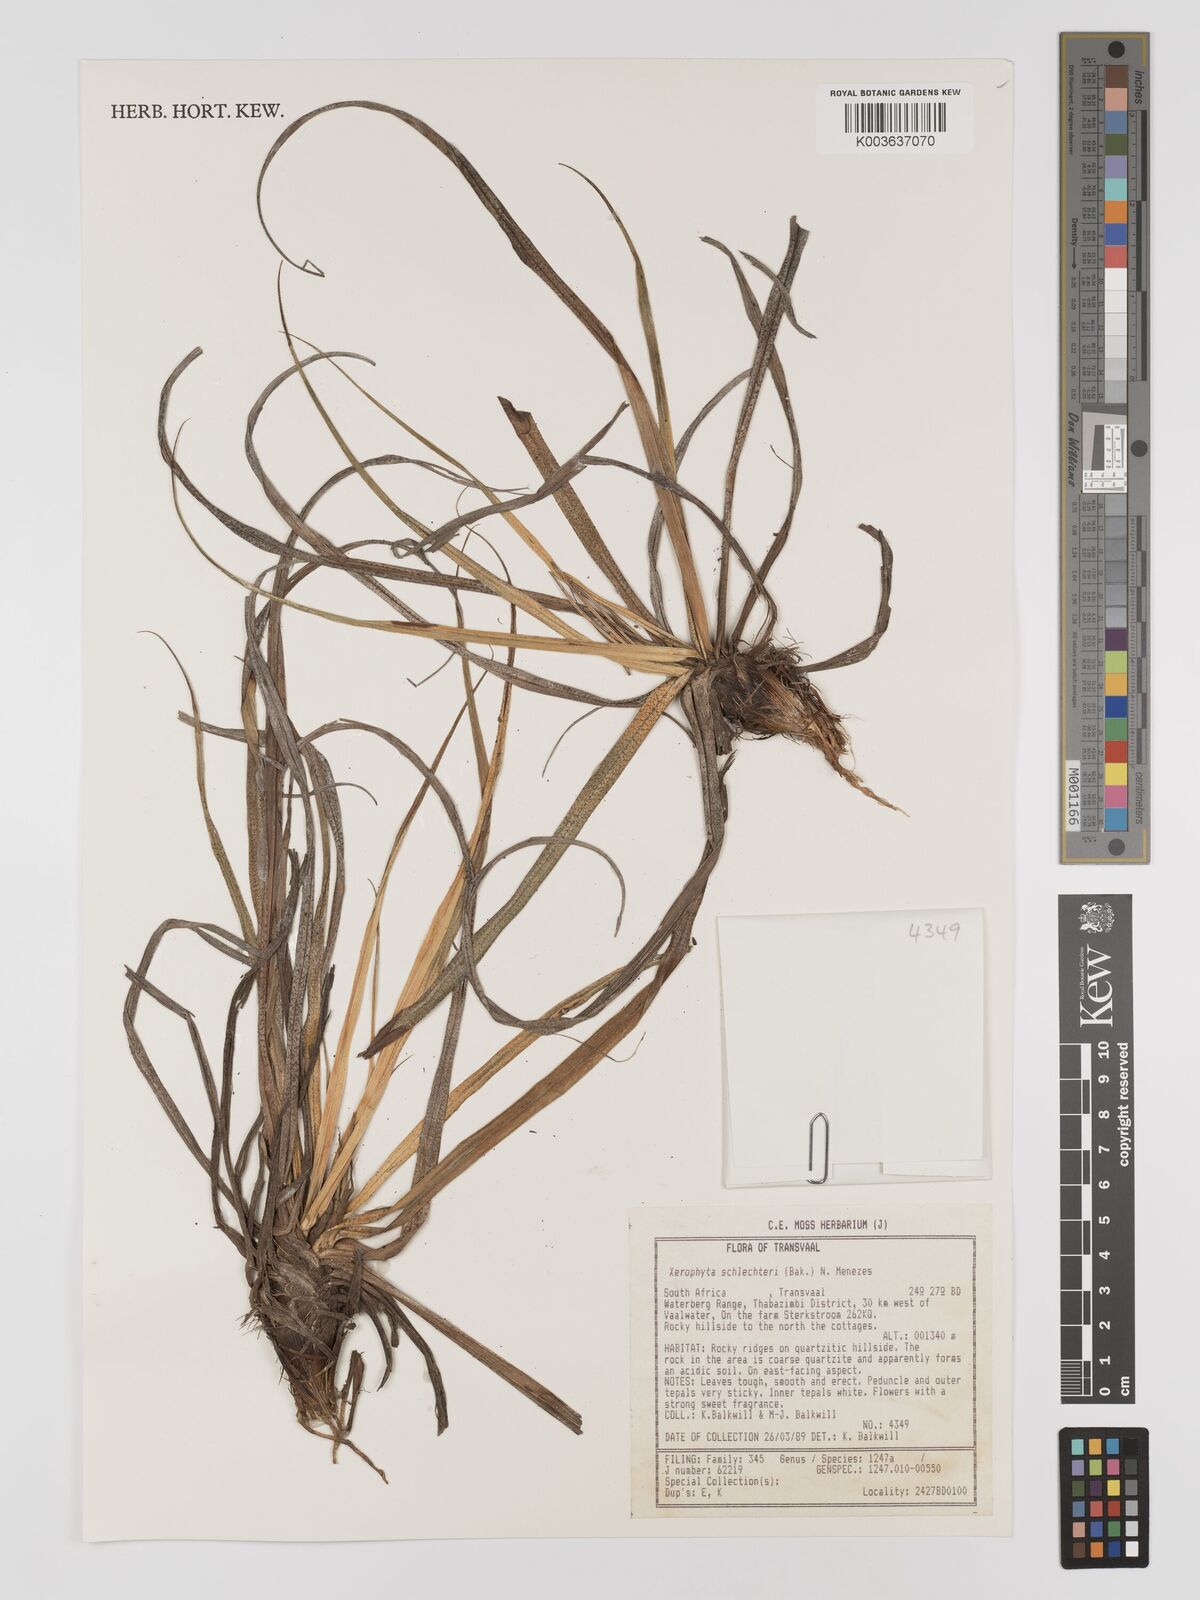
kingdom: Plantae
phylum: Tracheophyta
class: Liliopsida
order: Pandanales
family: Velloziaceae
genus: Xerophyta
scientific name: Xerophyta schlechteri
